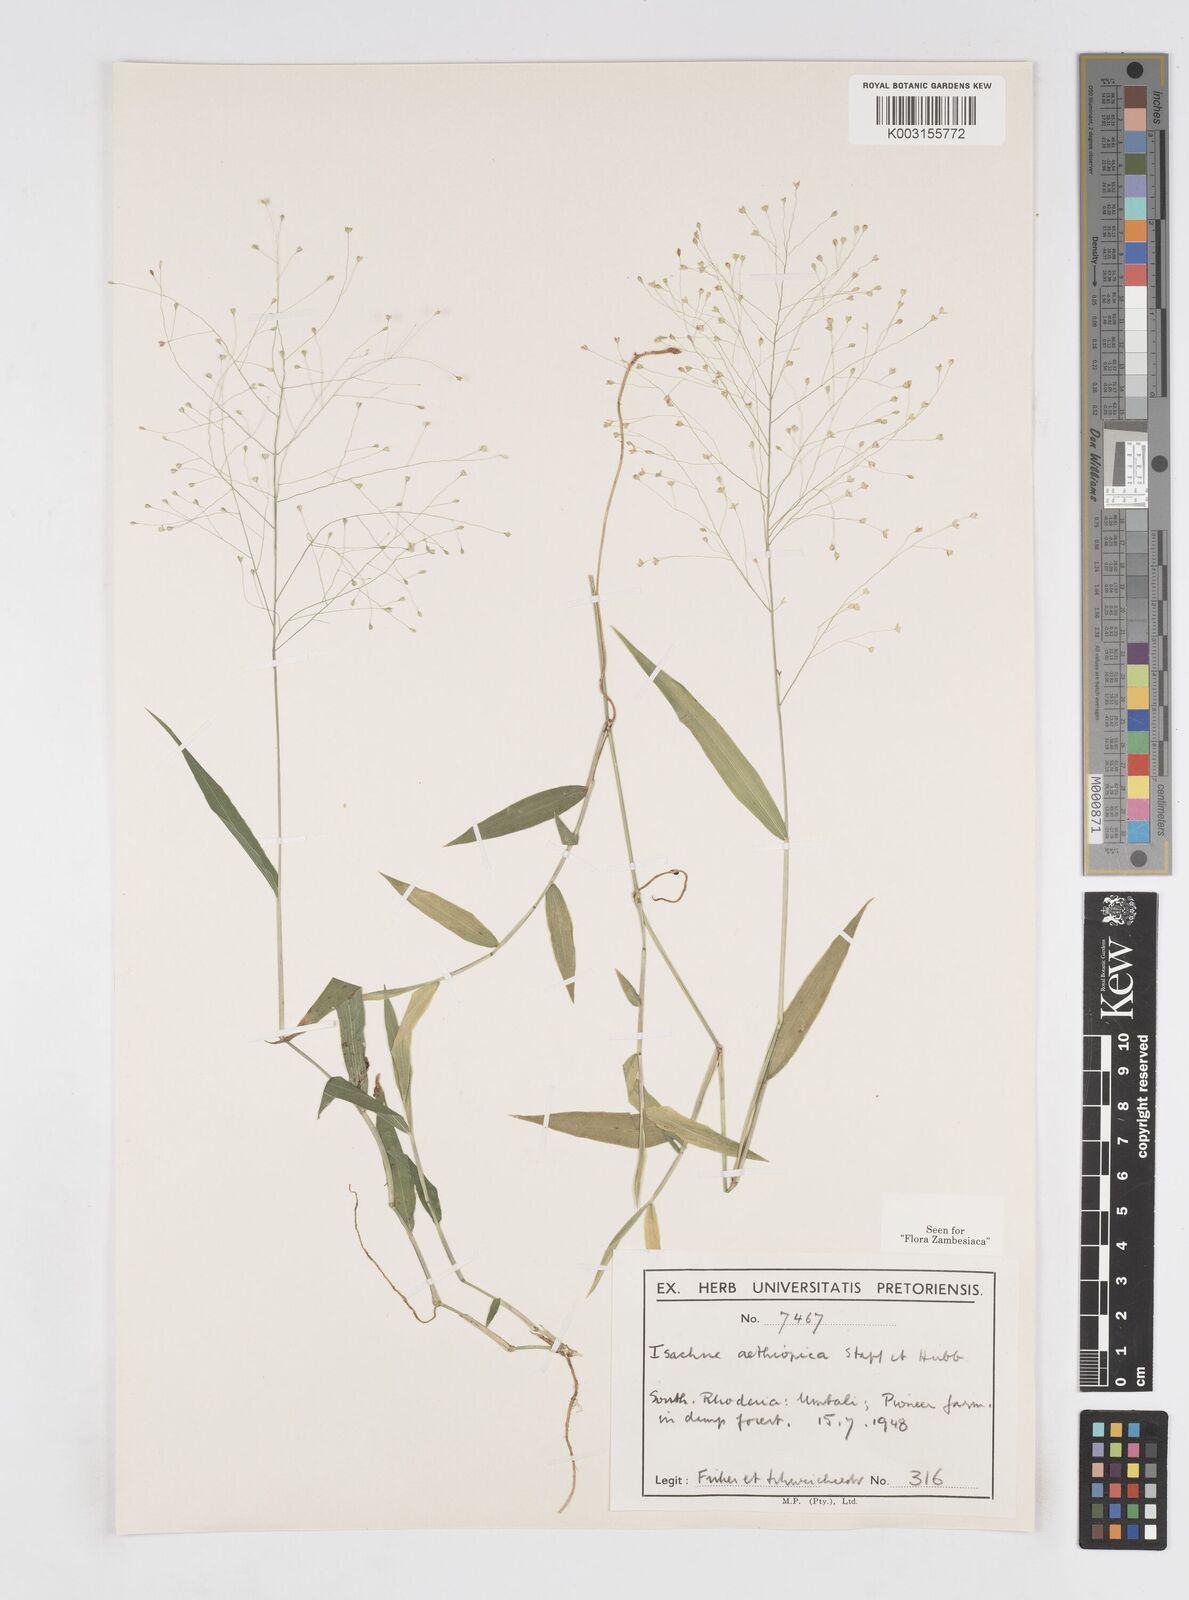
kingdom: Plantae
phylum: Tracheophyta
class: Liliopsida
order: Poales
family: Poaceae
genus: Isachne
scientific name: Isachne mauritiana
